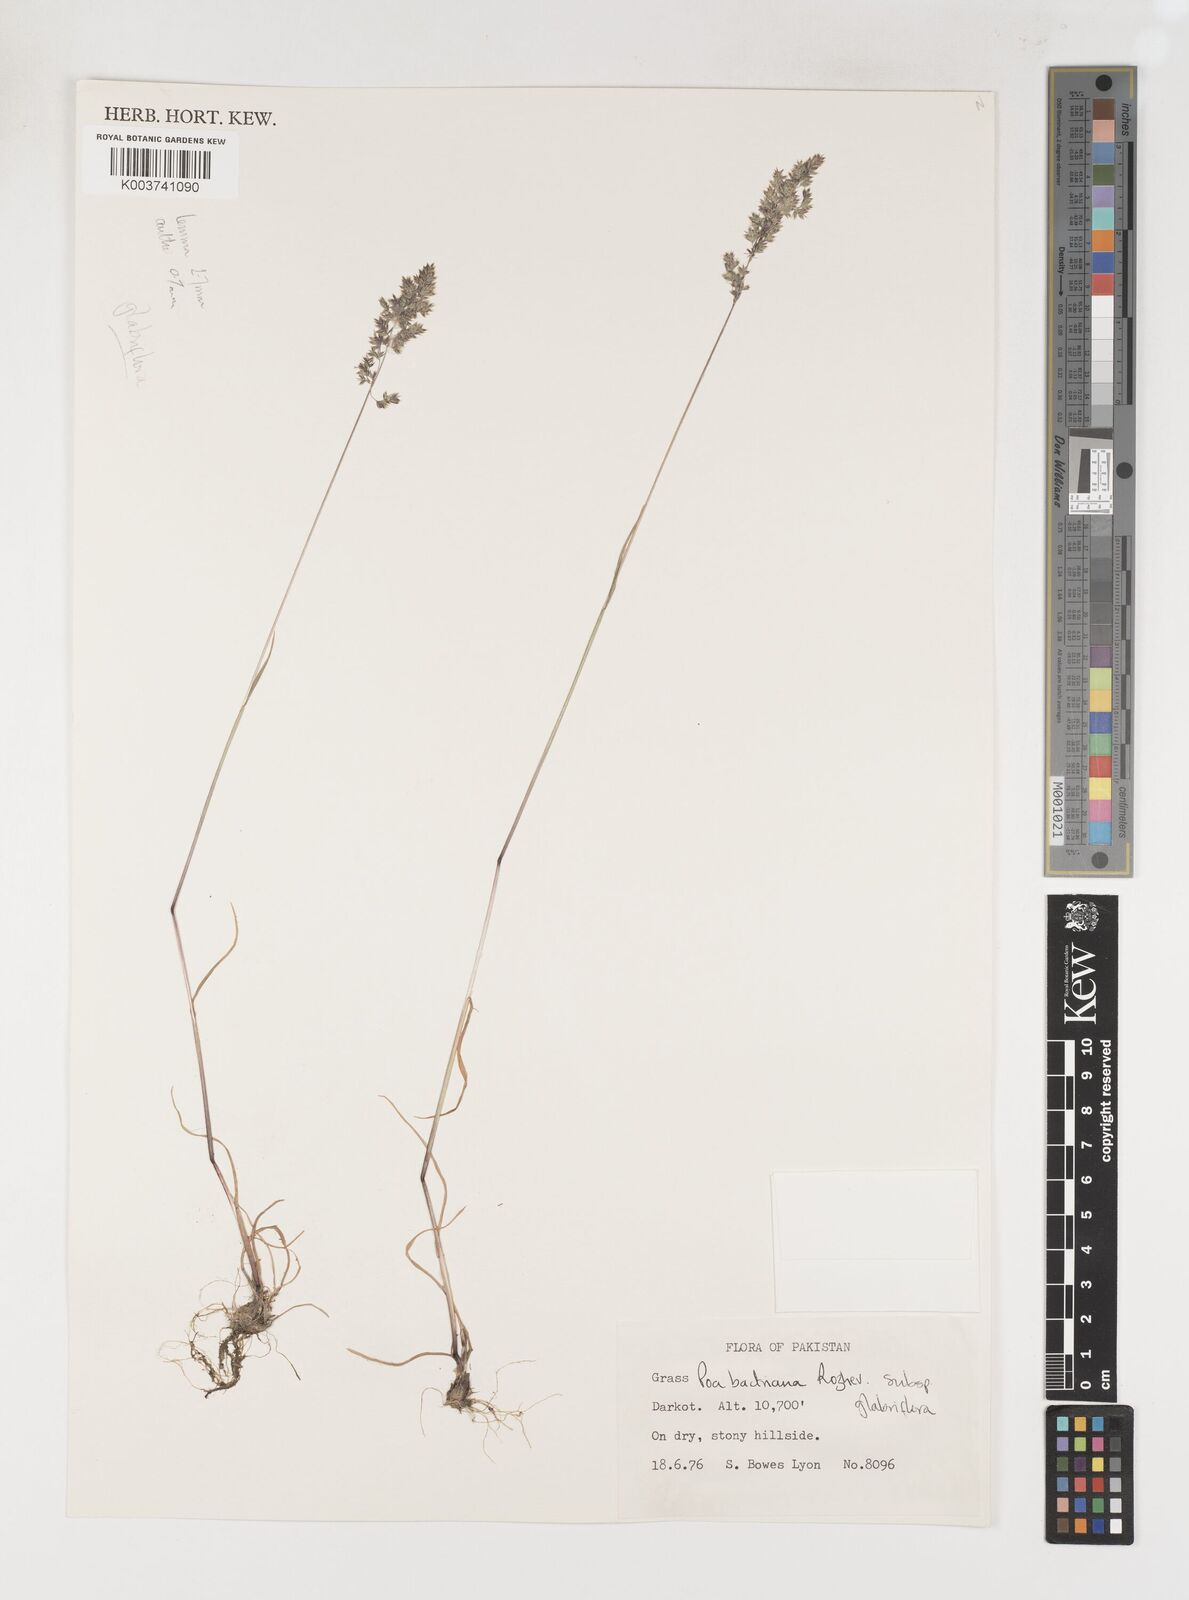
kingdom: Plantae
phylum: Tracheophyta
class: Liliopsida
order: Poales
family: Poaceae
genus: Poa
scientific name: Poa bactriana
